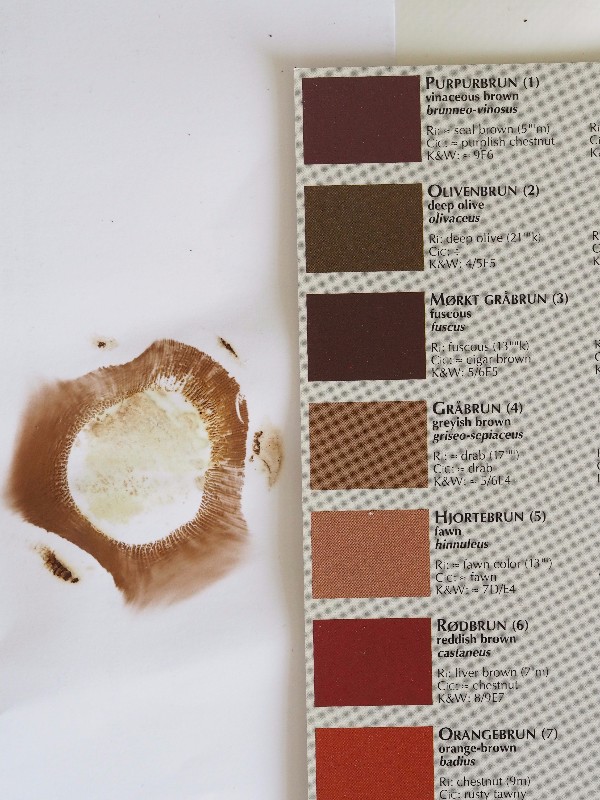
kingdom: Fungi
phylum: Basidiomycota
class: Agaricomycetes
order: Boletales
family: Paxillaceae
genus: Paxillus
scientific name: Paxillus obscurisporus
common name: mahognisporet netbladhat
